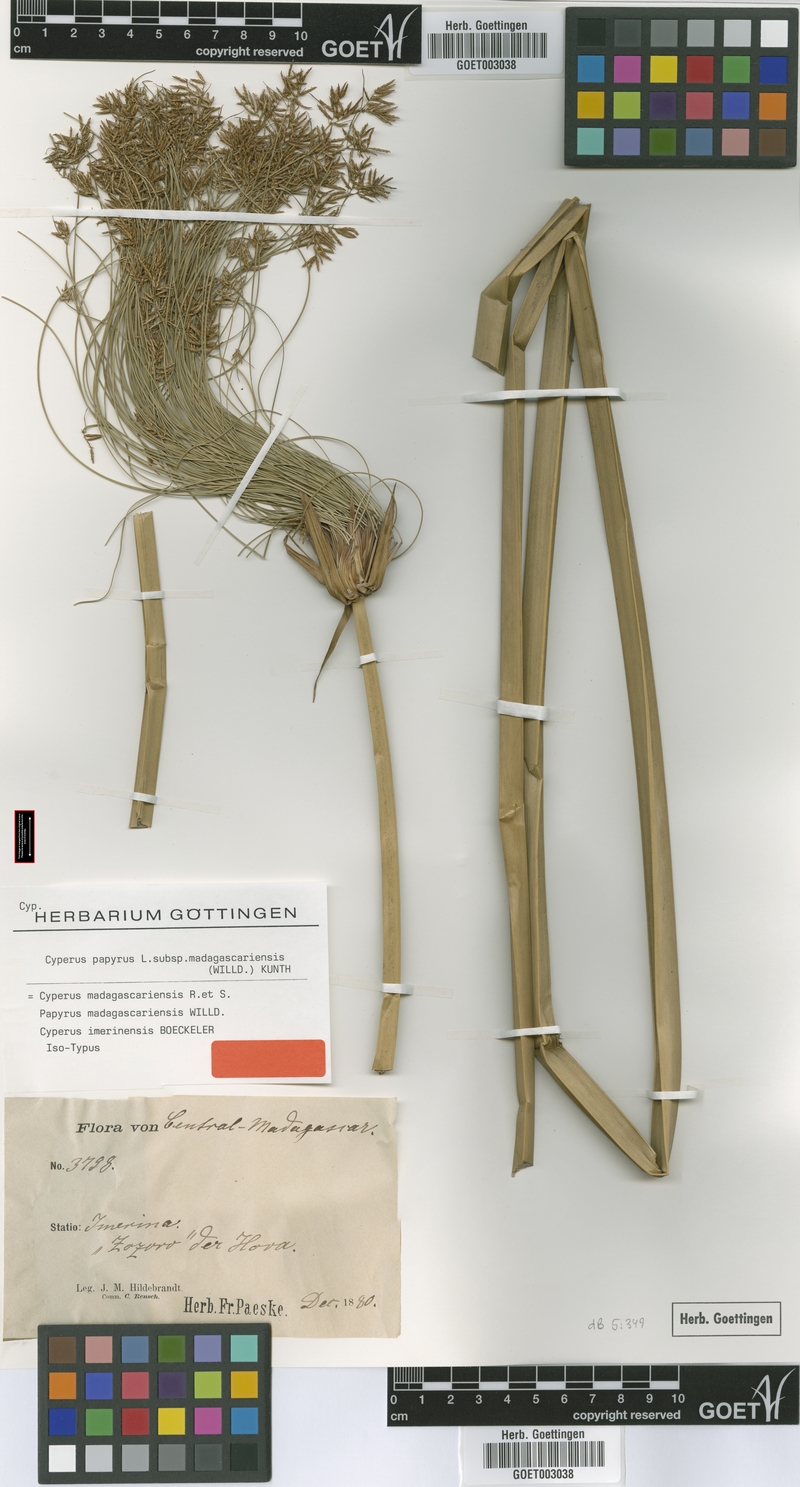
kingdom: Plantae
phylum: Tracheophyta
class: Liliopsida
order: Poales
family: Cyperaceae
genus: Cyperus
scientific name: Cyperus papyrus
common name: Papyrus
